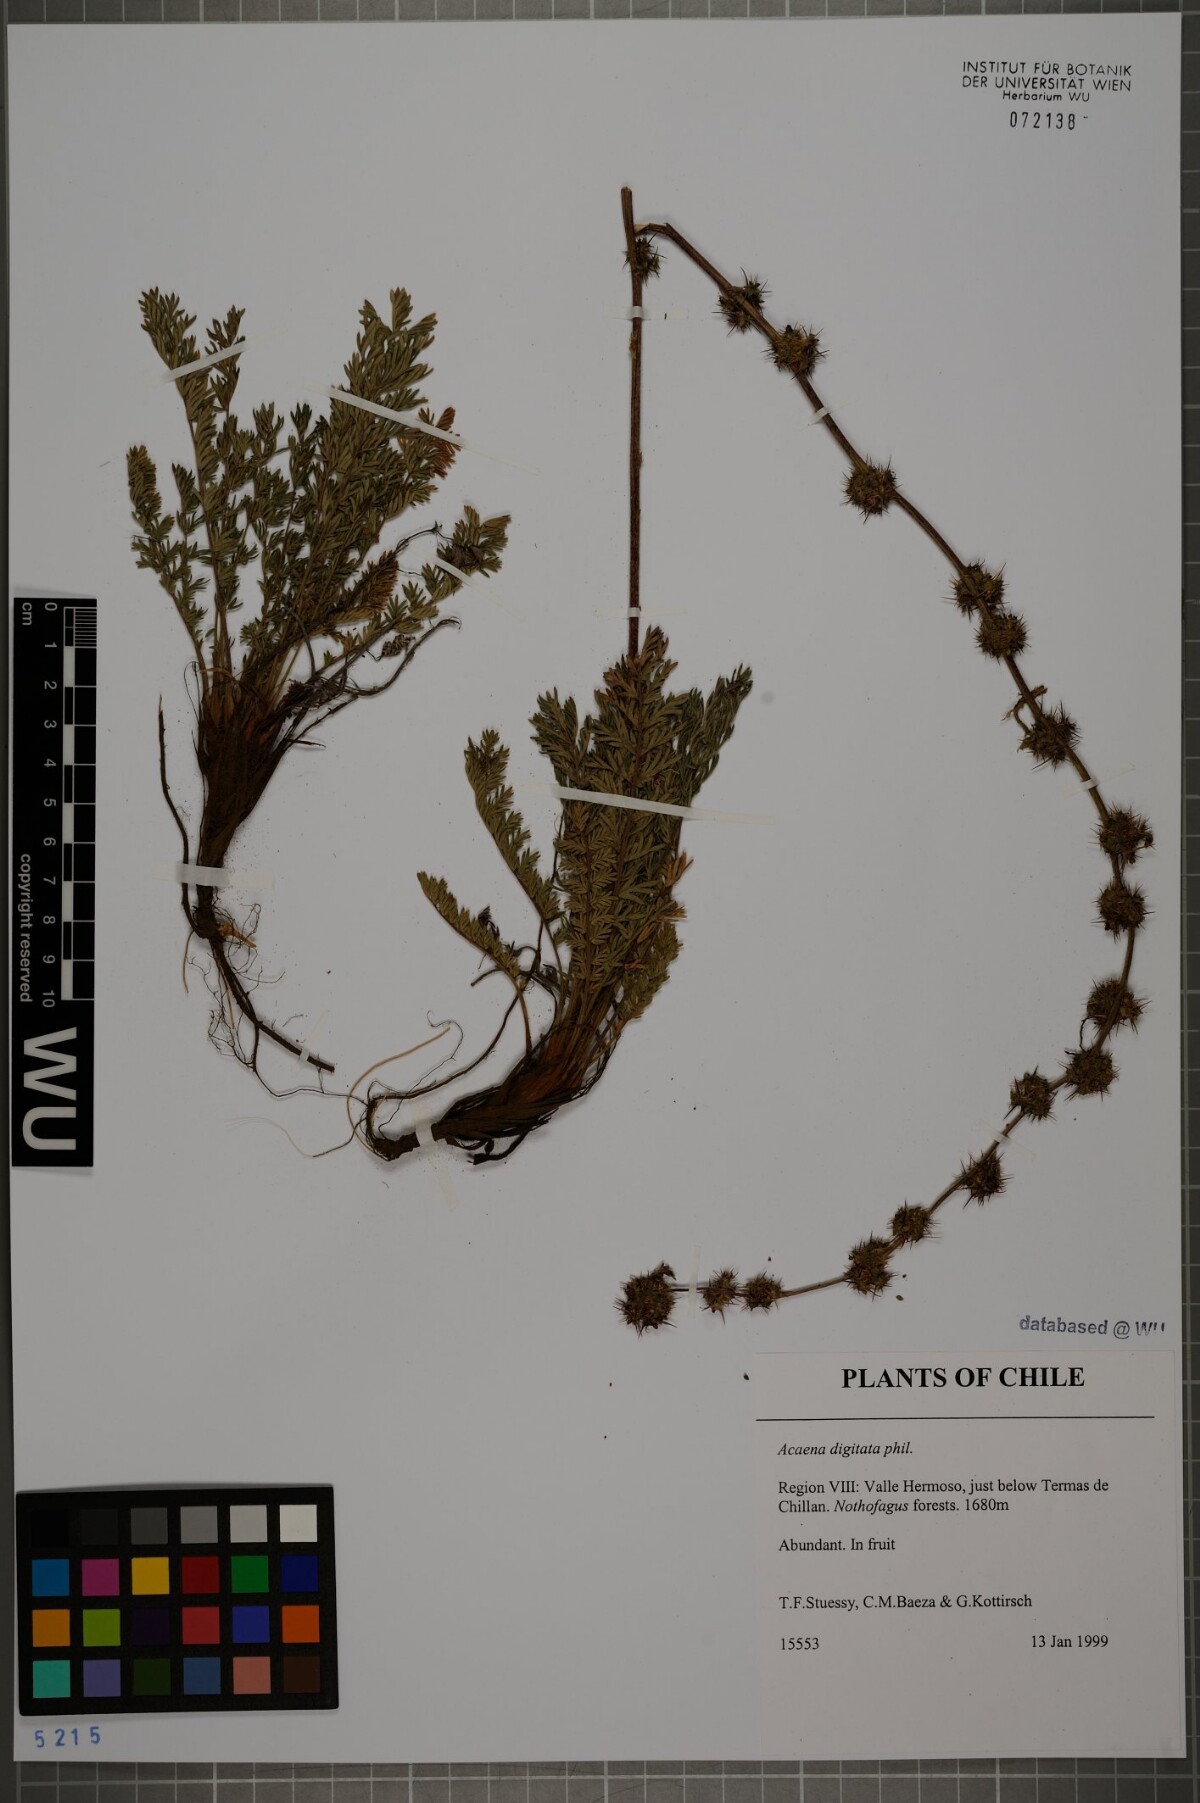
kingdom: Plantae
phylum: Tracheophyta
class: Magnoliopsida
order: Rosales
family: Rosaceae
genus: Acaena
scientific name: Acaena alpina
